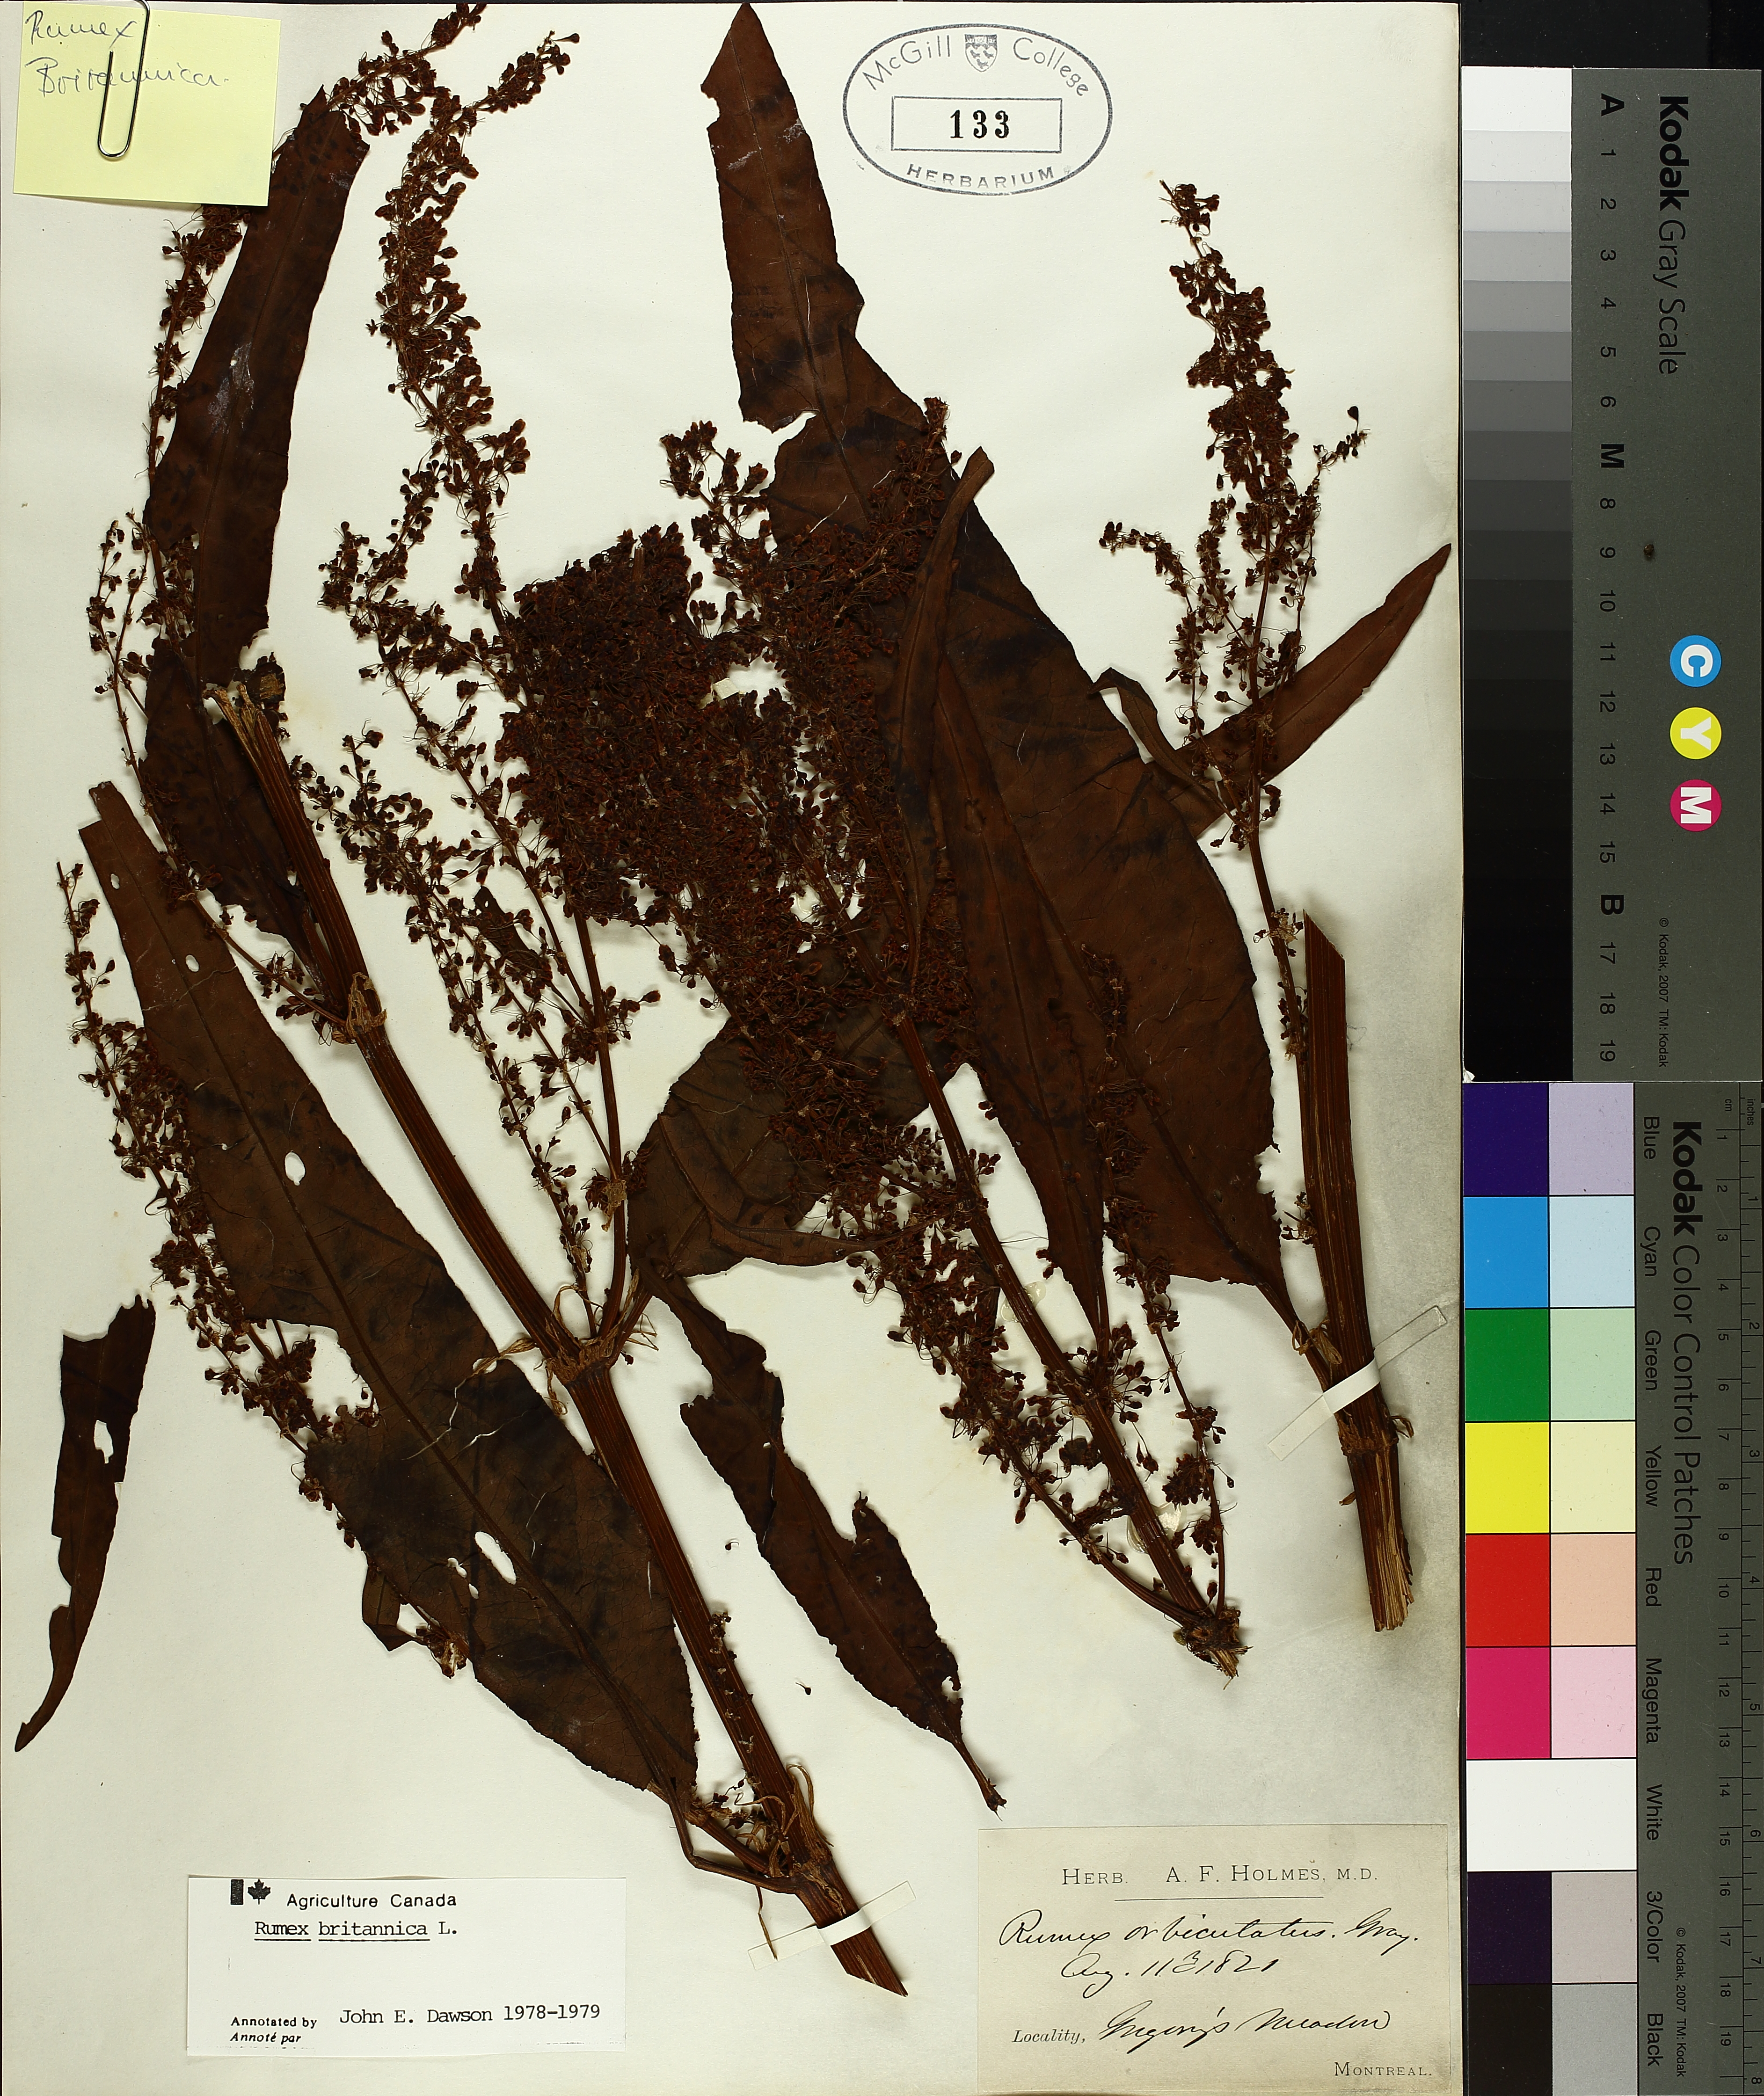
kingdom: Plantae
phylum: Tracheophyta
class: Magnoliopsida
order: Caryophyllales
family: Polygonaceae
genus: Rumex
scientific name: Rumex britannica
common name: British dock
